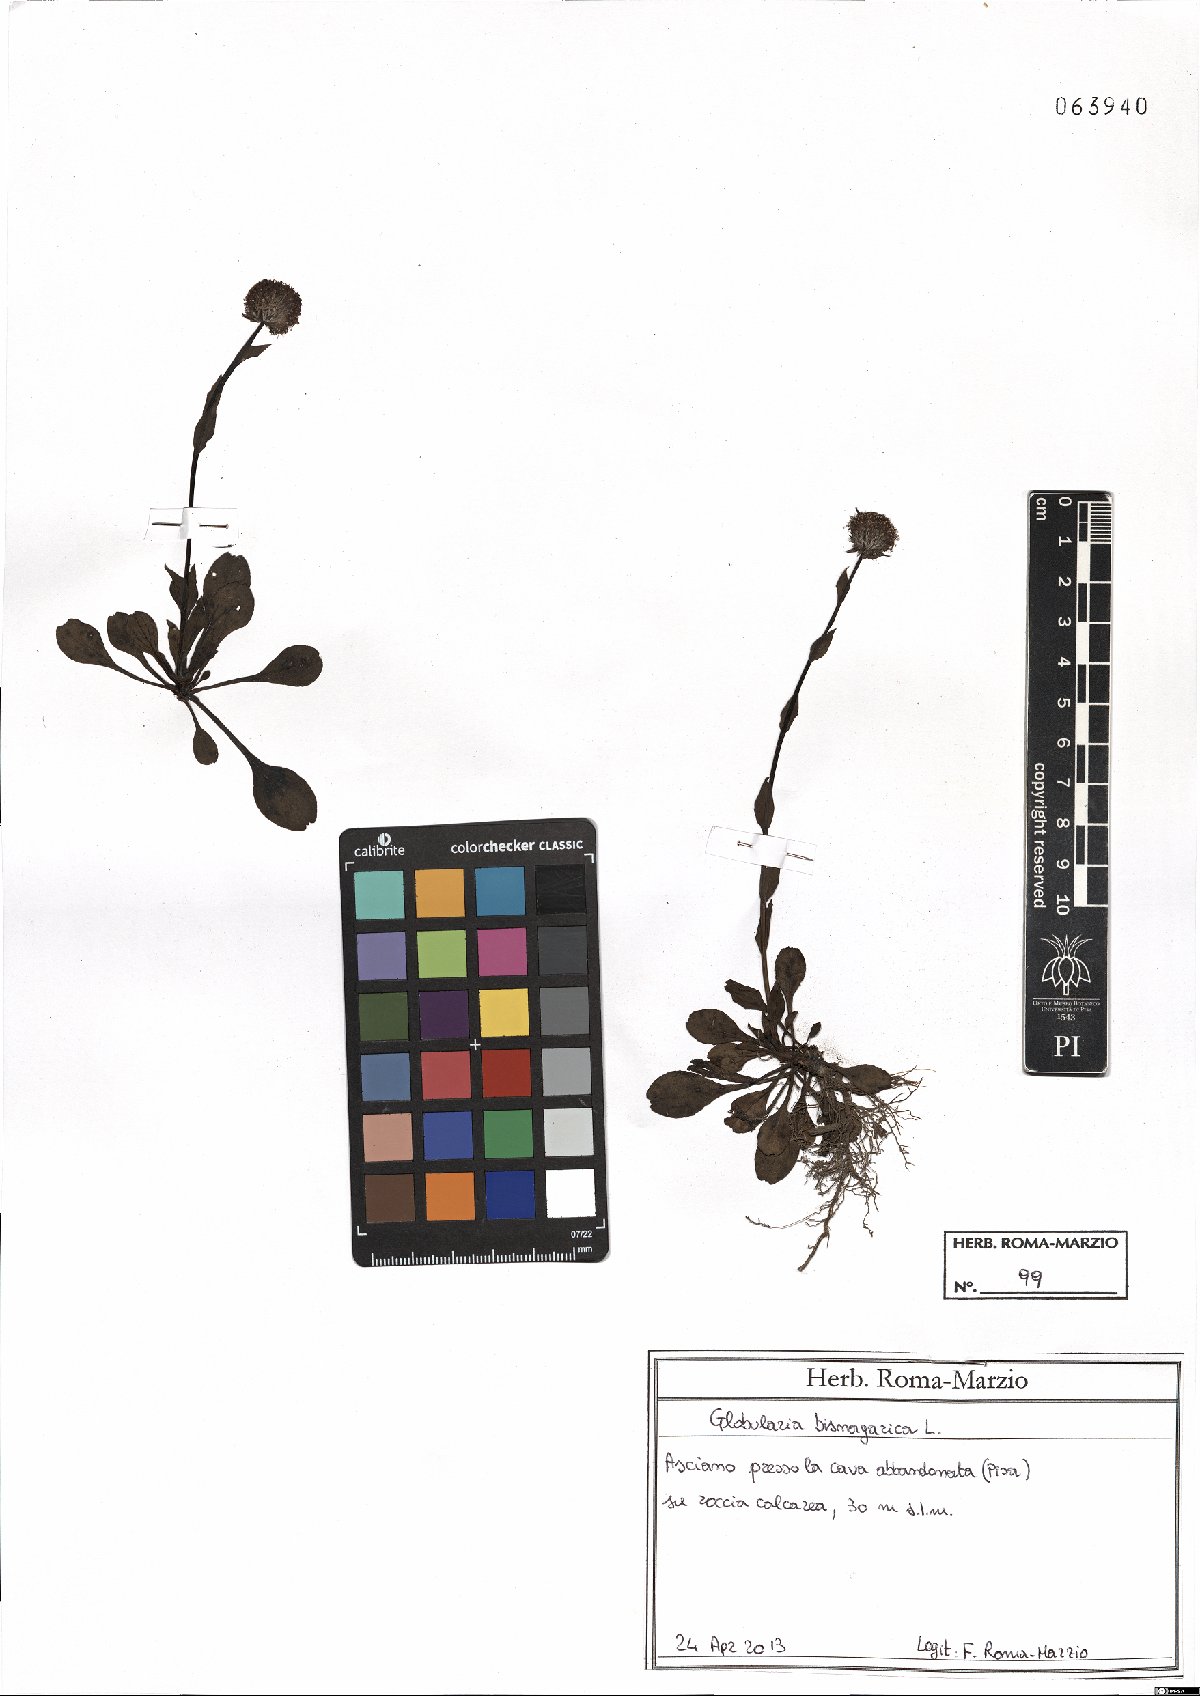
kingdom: Plantae
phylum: Tracheophyta
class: Magnoliopsida
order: Lamiales
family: Plantaginaceae
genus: Globularia
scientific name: Globularia bisnagarica
